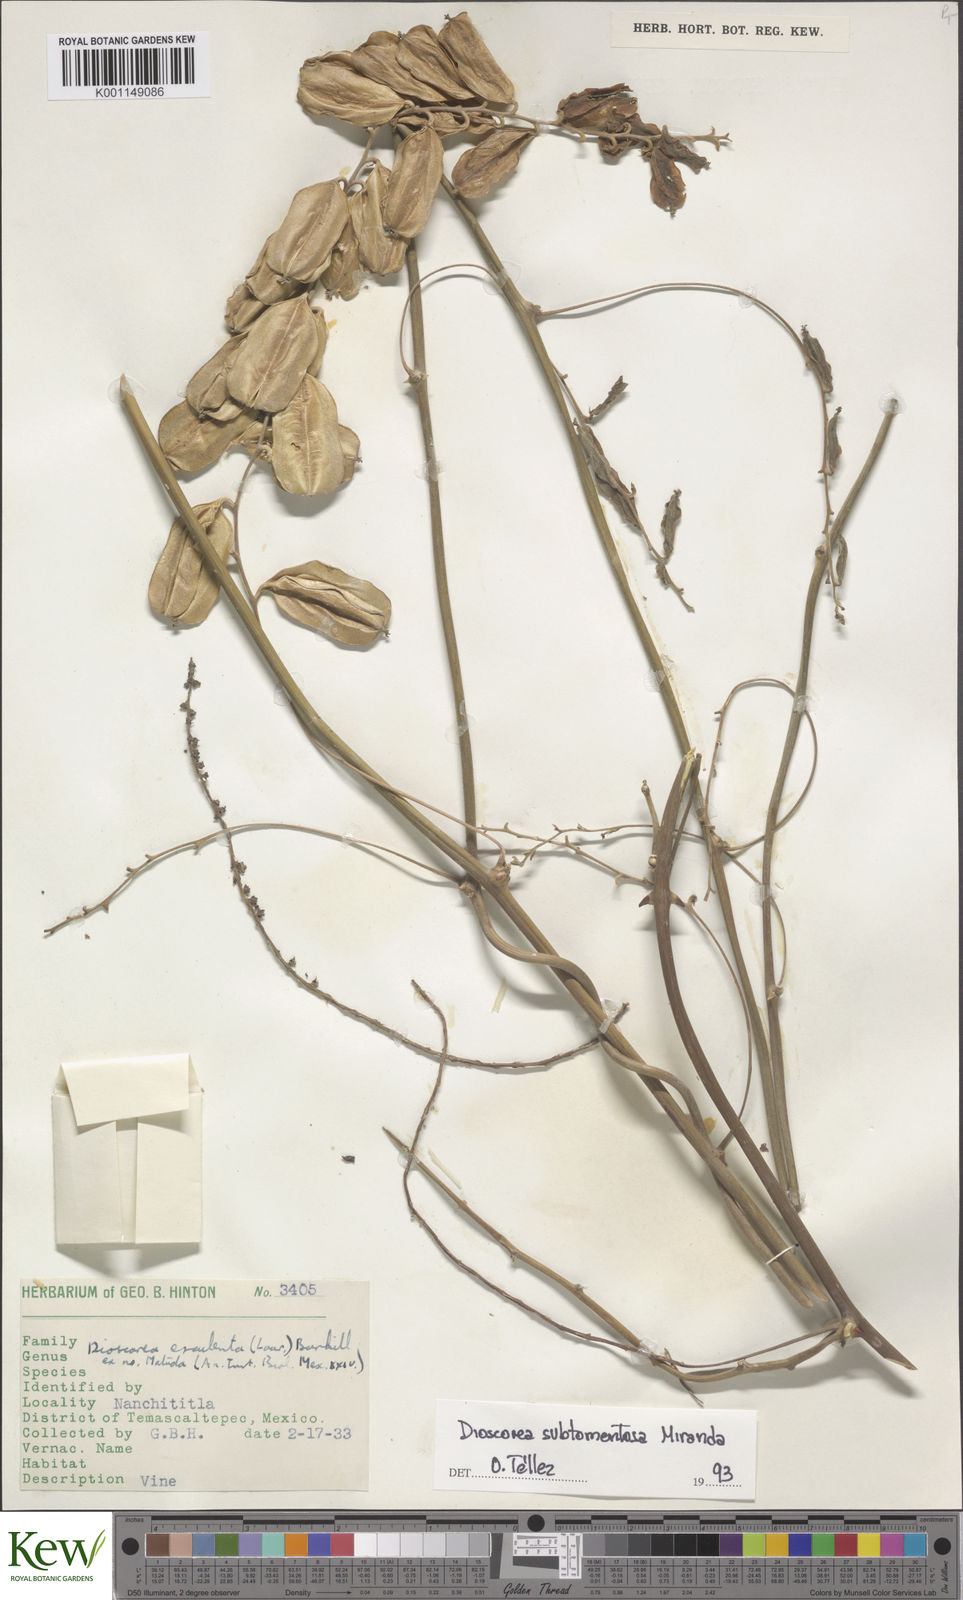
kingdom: Plantae
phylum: Tracheophyta
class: Liliopsida
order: Dioscoreales
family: Dioscoreaceae
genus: Dioscorea
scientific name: Dioscorea subtomentosa
